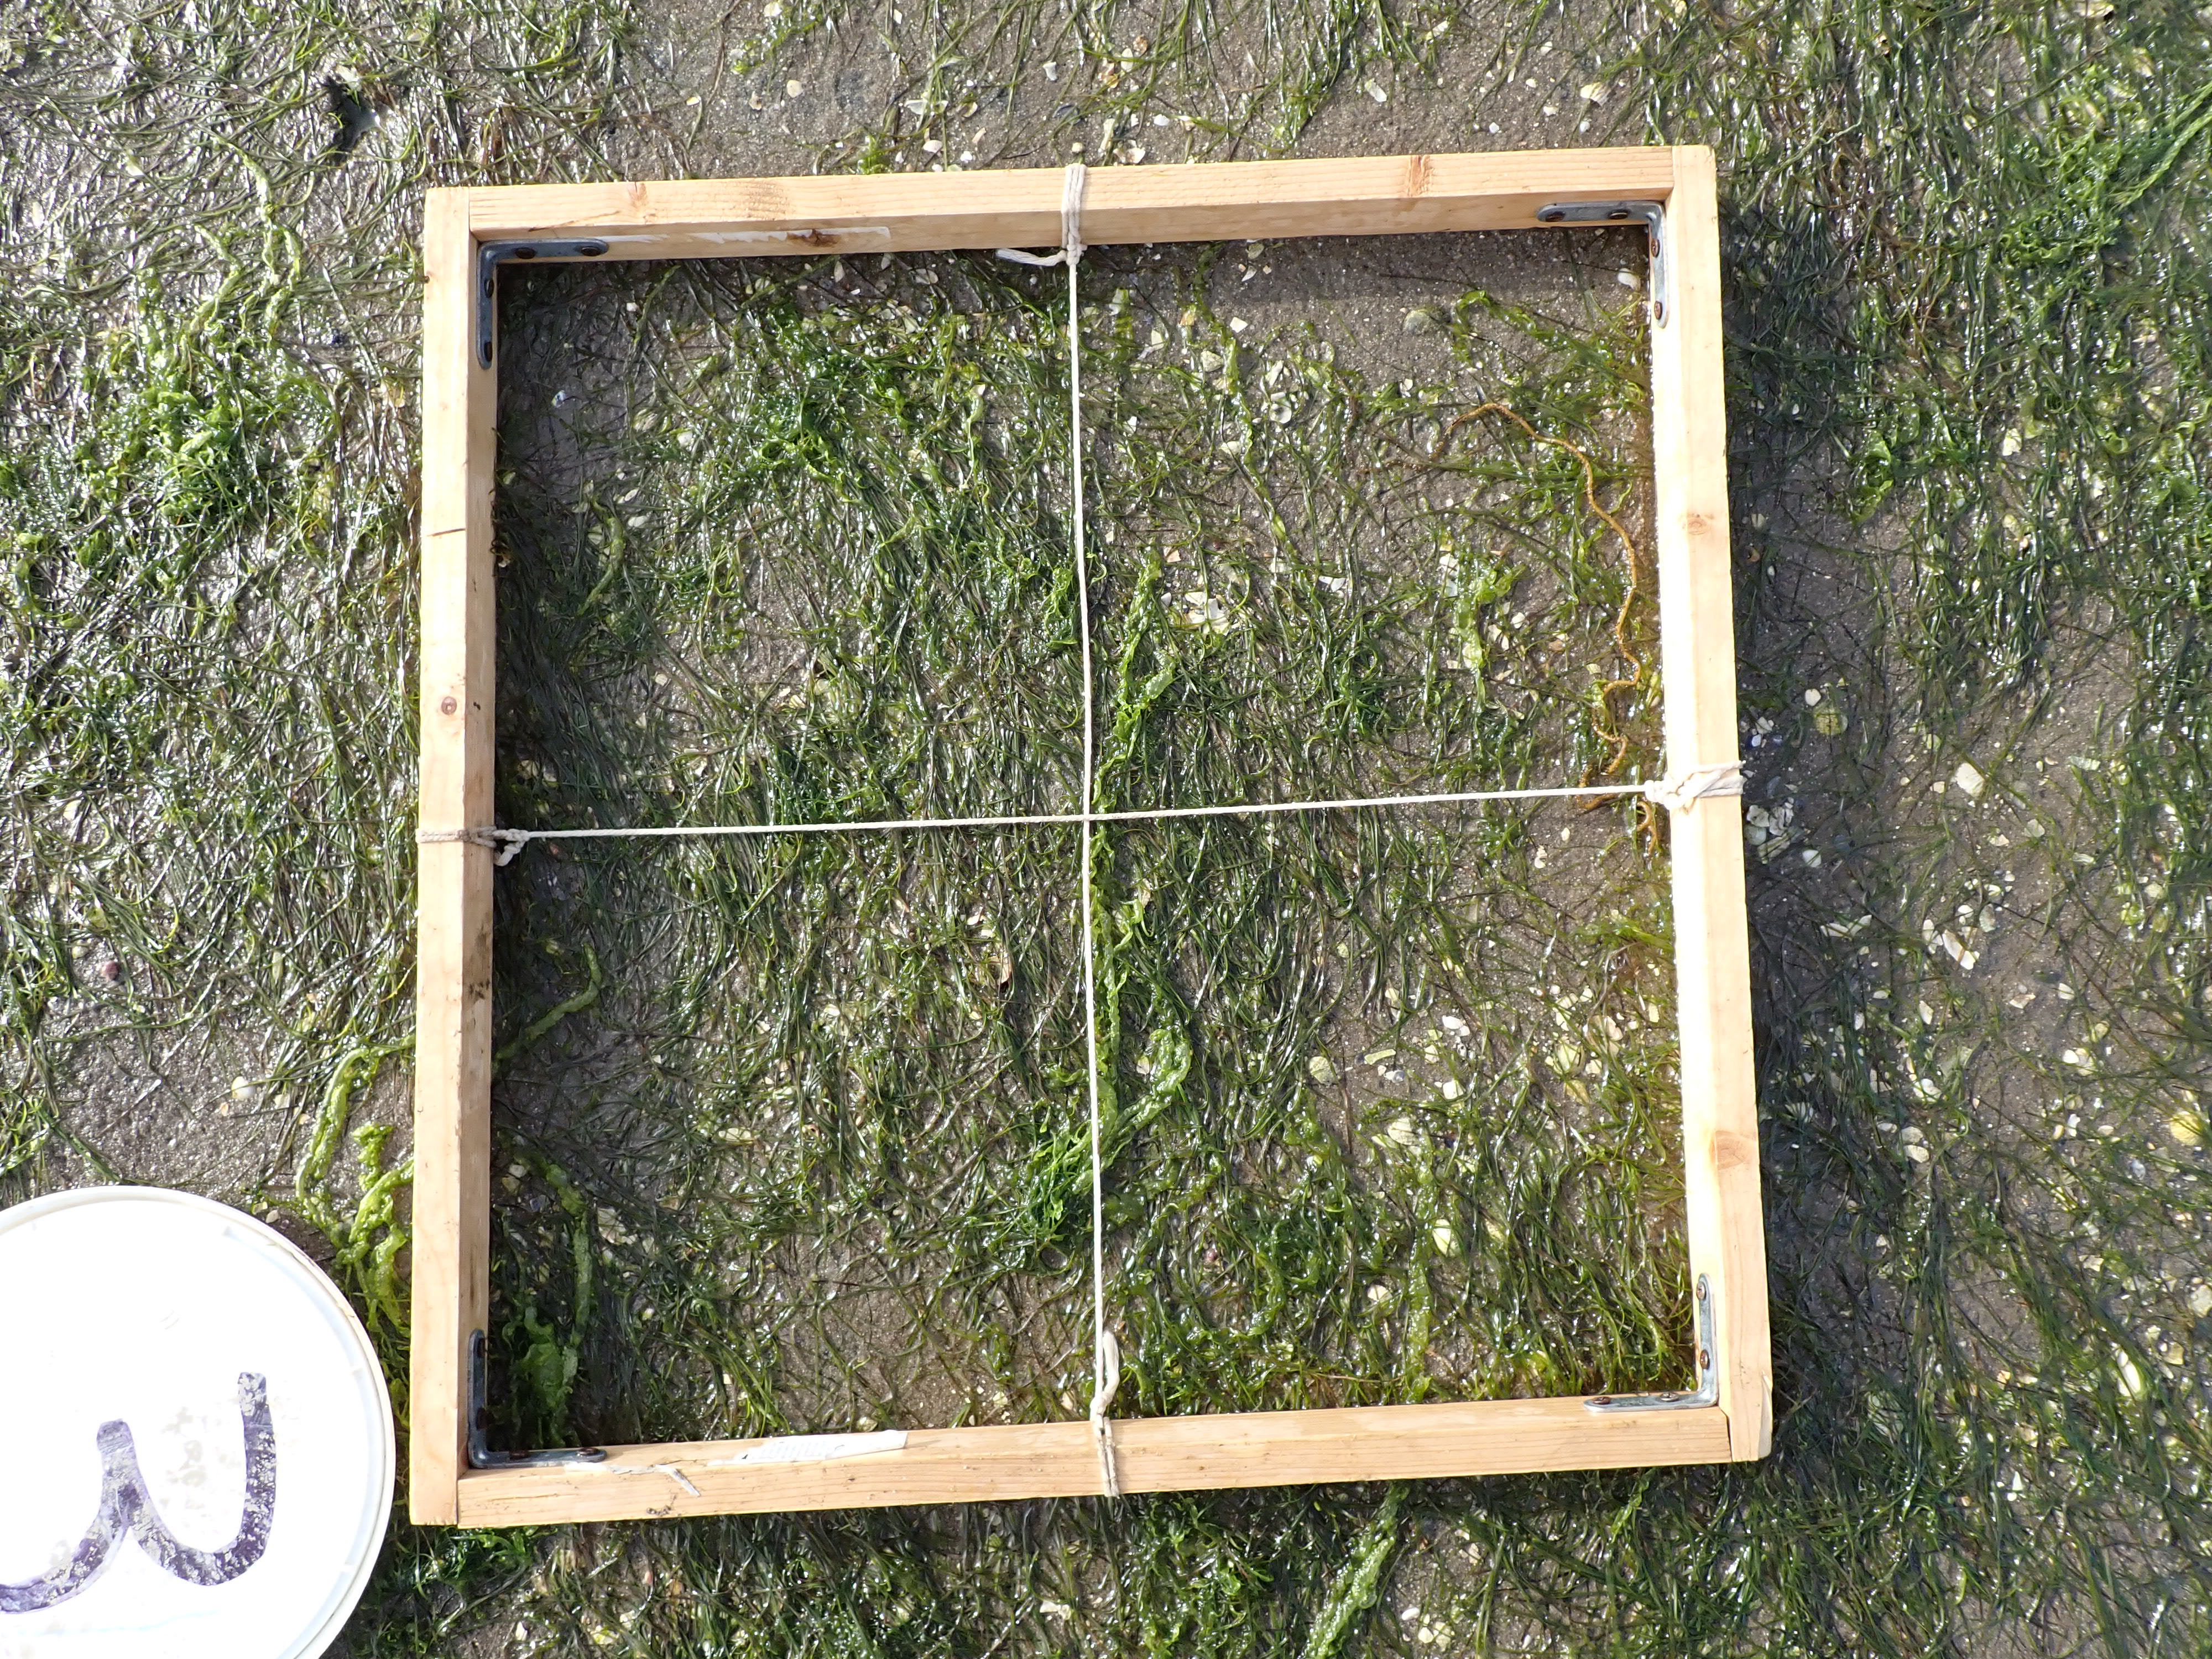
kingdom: Plantae
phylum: Tracheophyta
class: Liliopsida
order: Alismatales
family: Zosteraceae
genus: Zostera
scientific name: Zostera noltii
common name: Dwarf eelgrass
